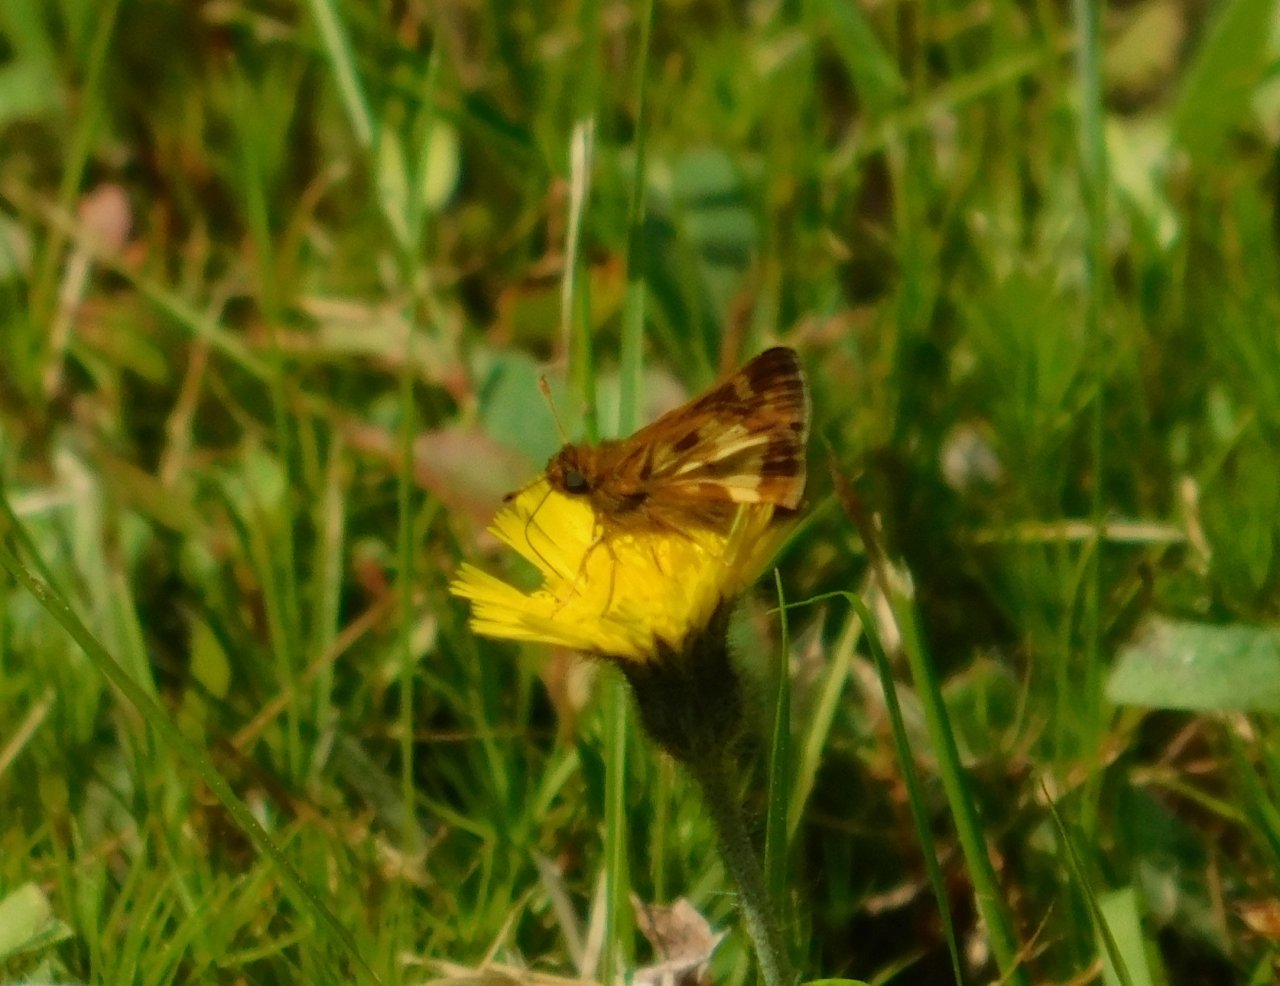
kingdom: Animalia
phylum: Arthropoda
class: Insecta
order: Lepidoptera
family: Hesperiidae
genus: Polites
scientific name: Polites coras
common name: Peck's Skipper
